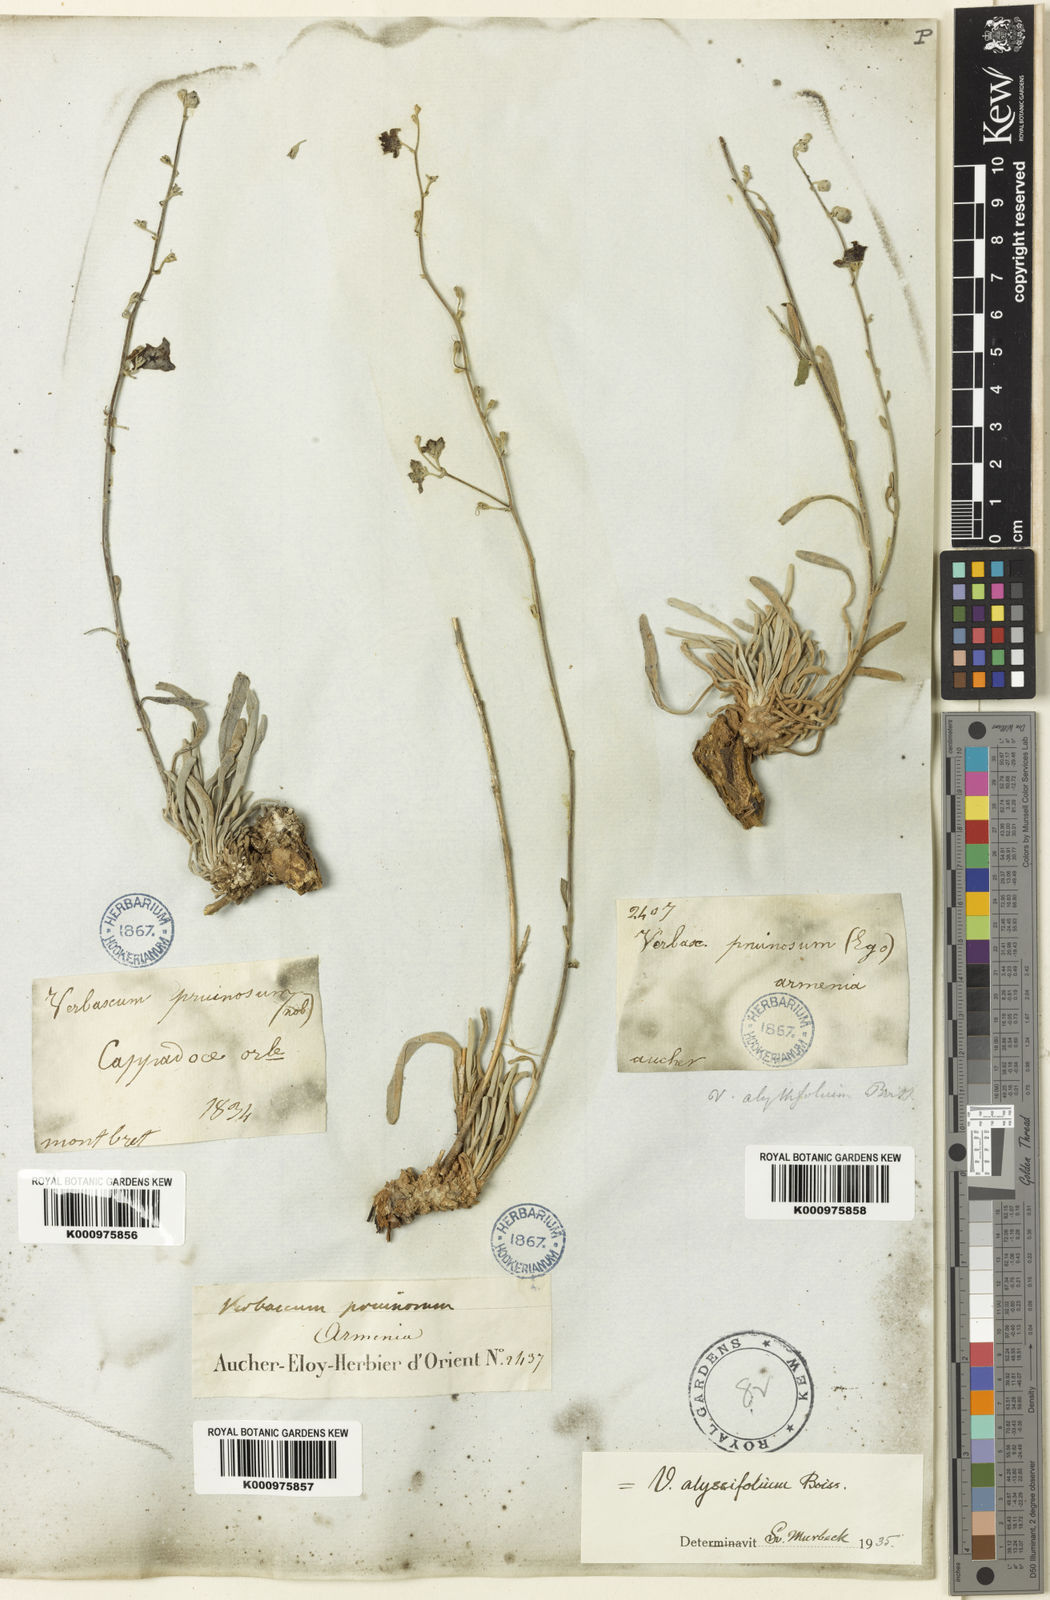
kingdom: Plantae
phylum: Tracheophyta
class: Magnoliopsida
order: Lamiales
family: Scrophulariaceae
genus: Verbascum
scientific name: Verbascum alyssifolium
